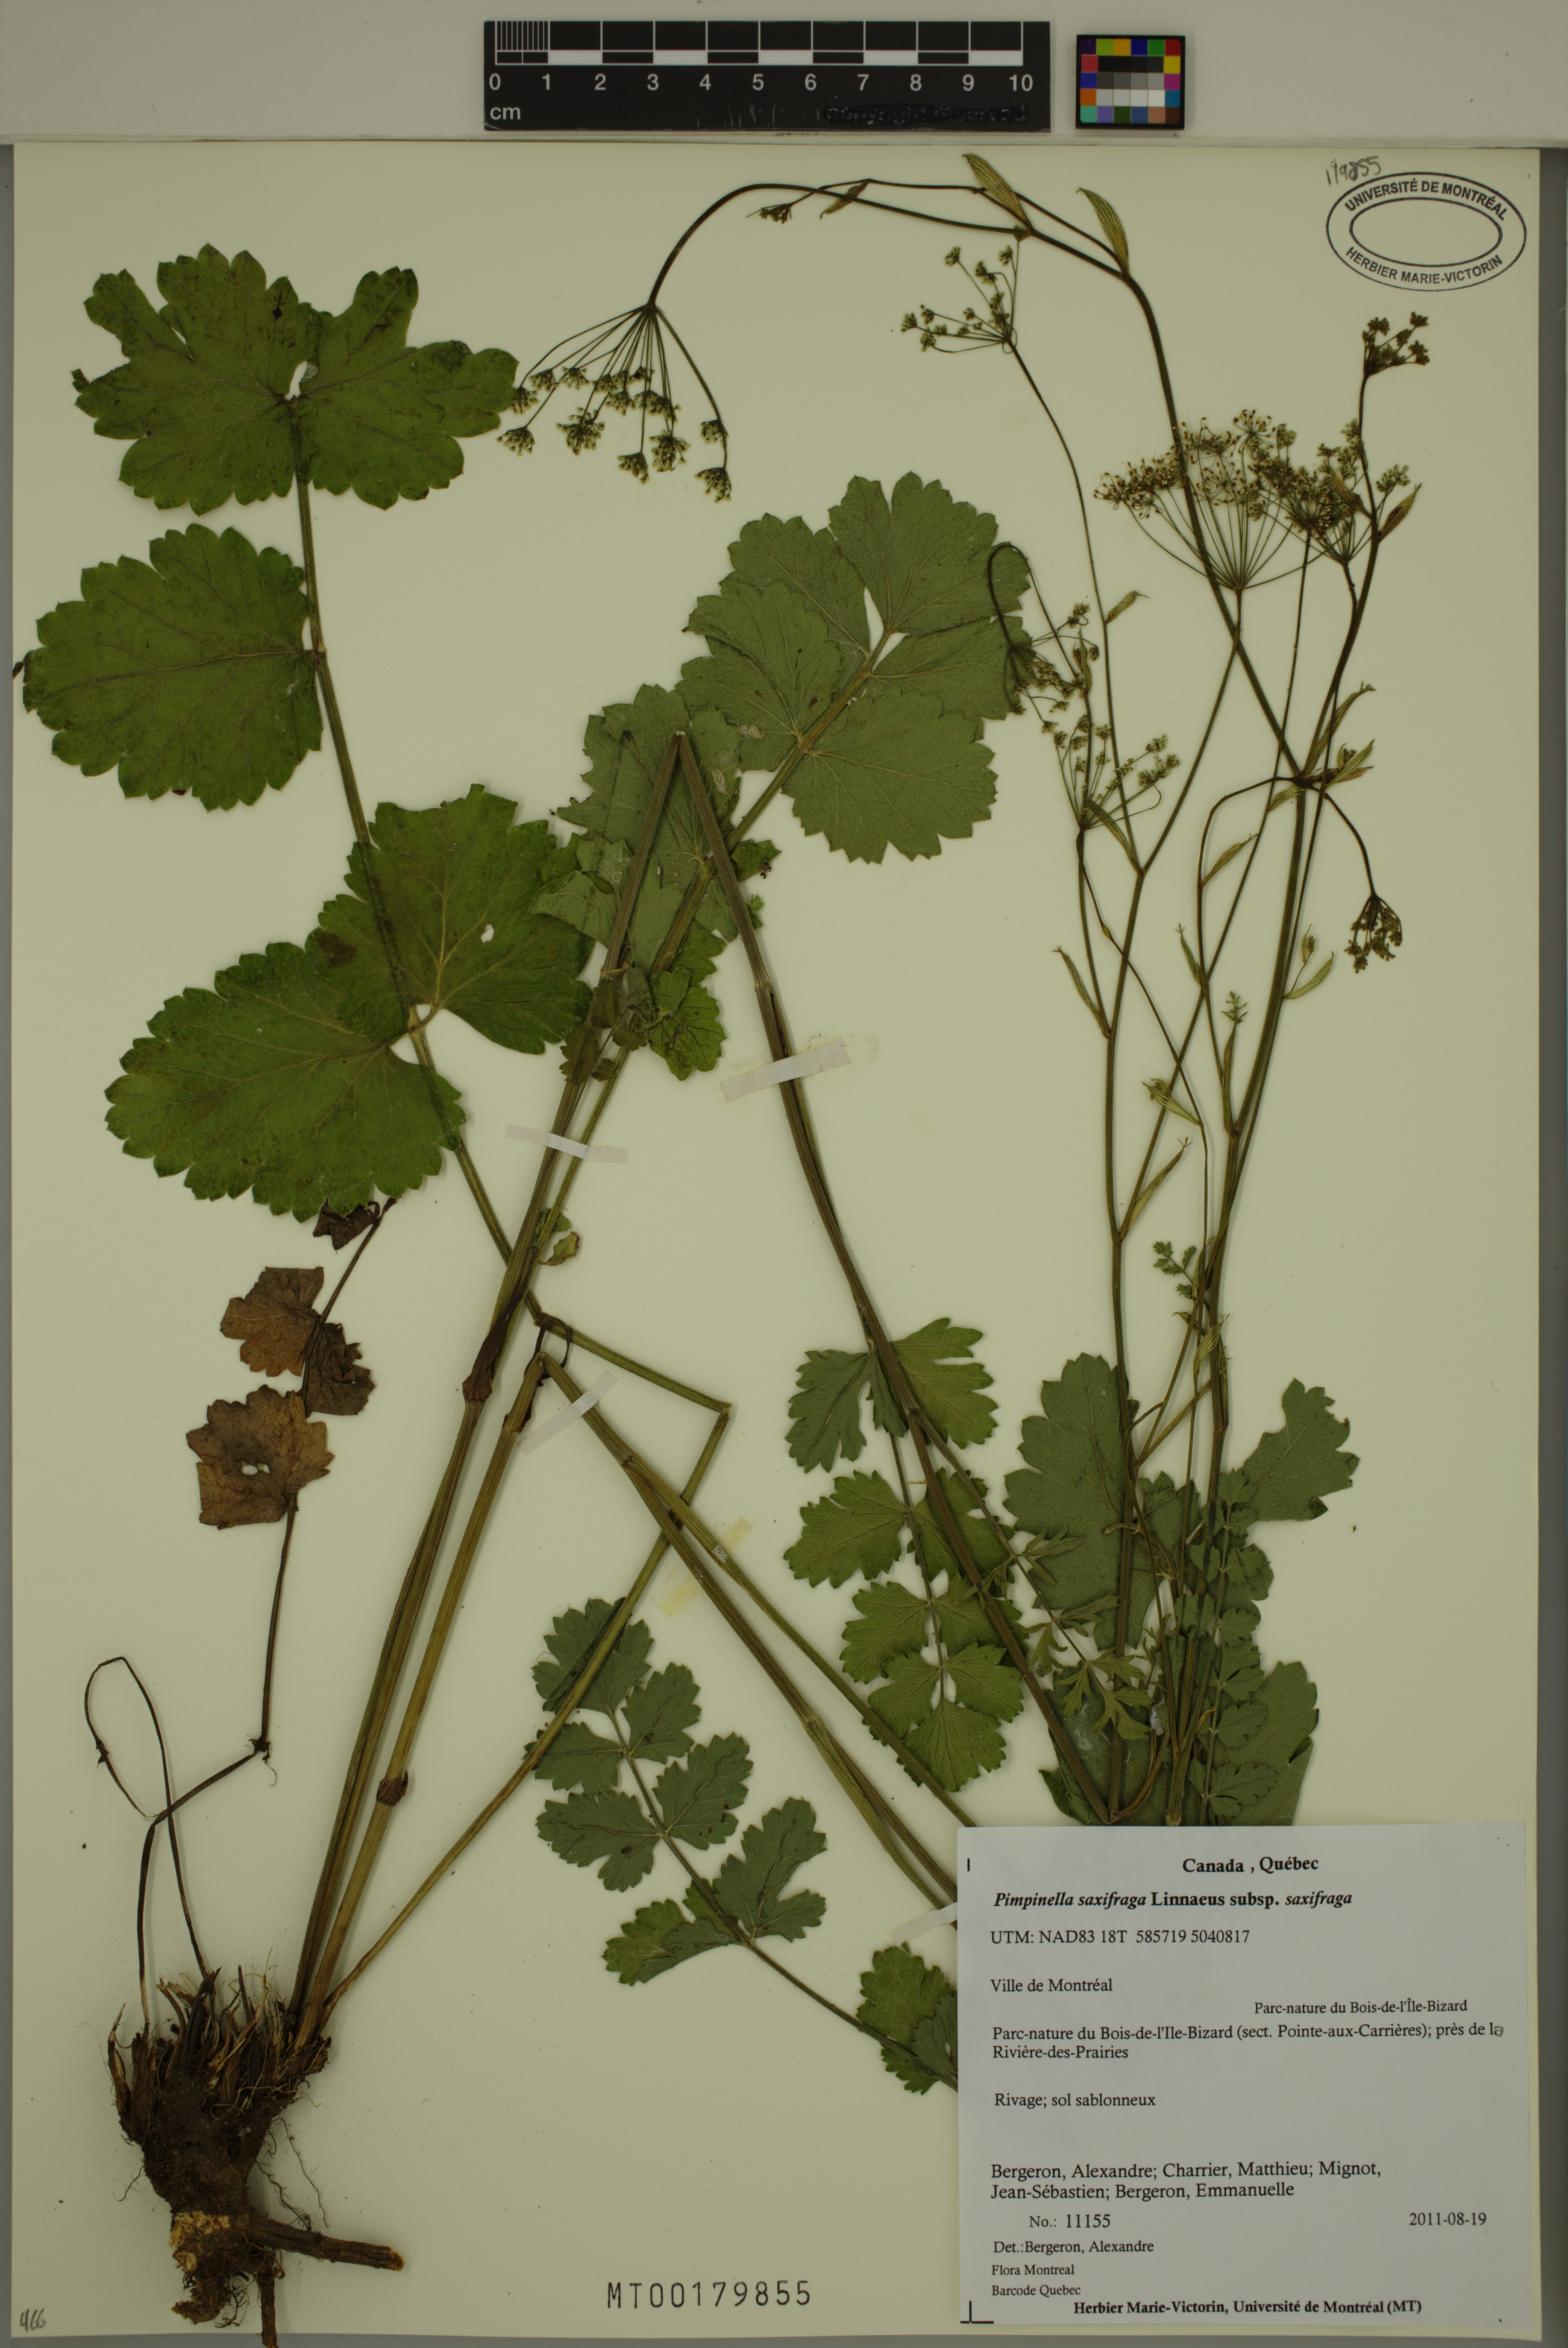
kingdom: Plantae
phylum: Tracheophyta
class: Magnoliopsida
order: Apiales
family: Apiaceae
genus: Pimpinella
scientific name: Pimpinella saxifraga
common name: Burnet-saxifrage
